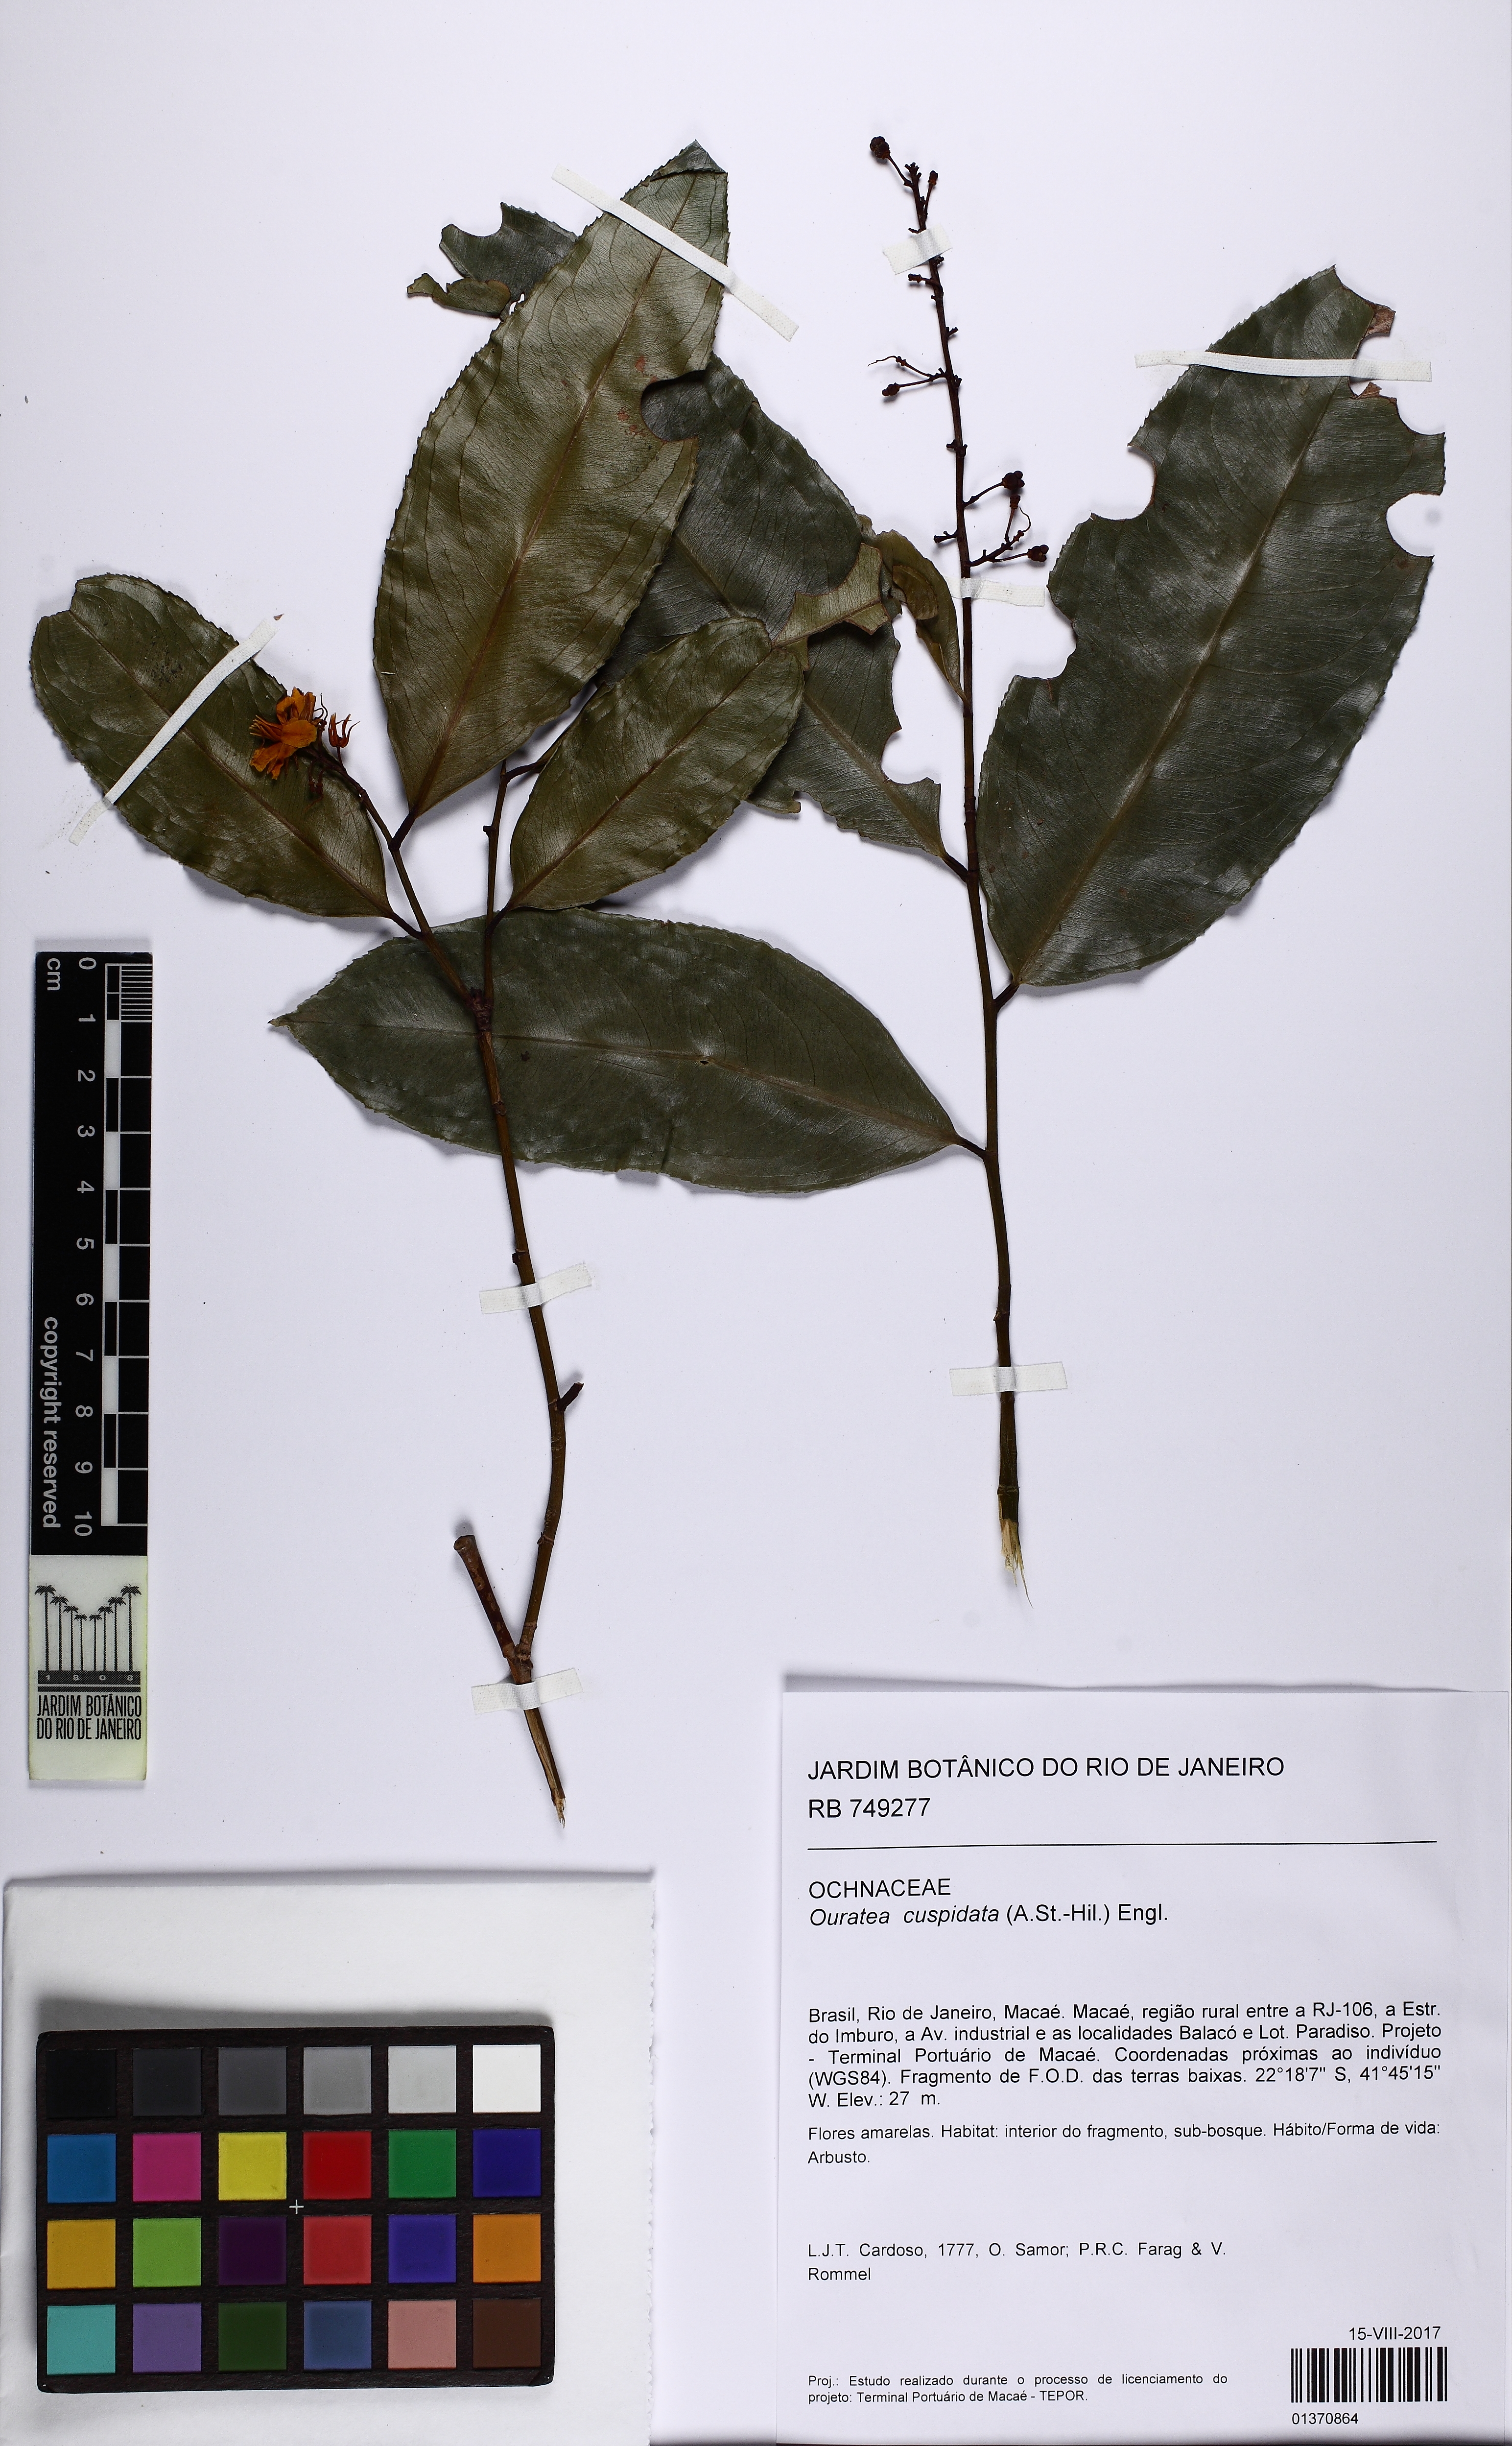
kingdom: Plantae
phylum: Tracheophyta
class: Magnoliopsida
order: Malpighiales
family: Ochnaceae
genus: Ouratea
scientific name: Ouratea cuspidata
